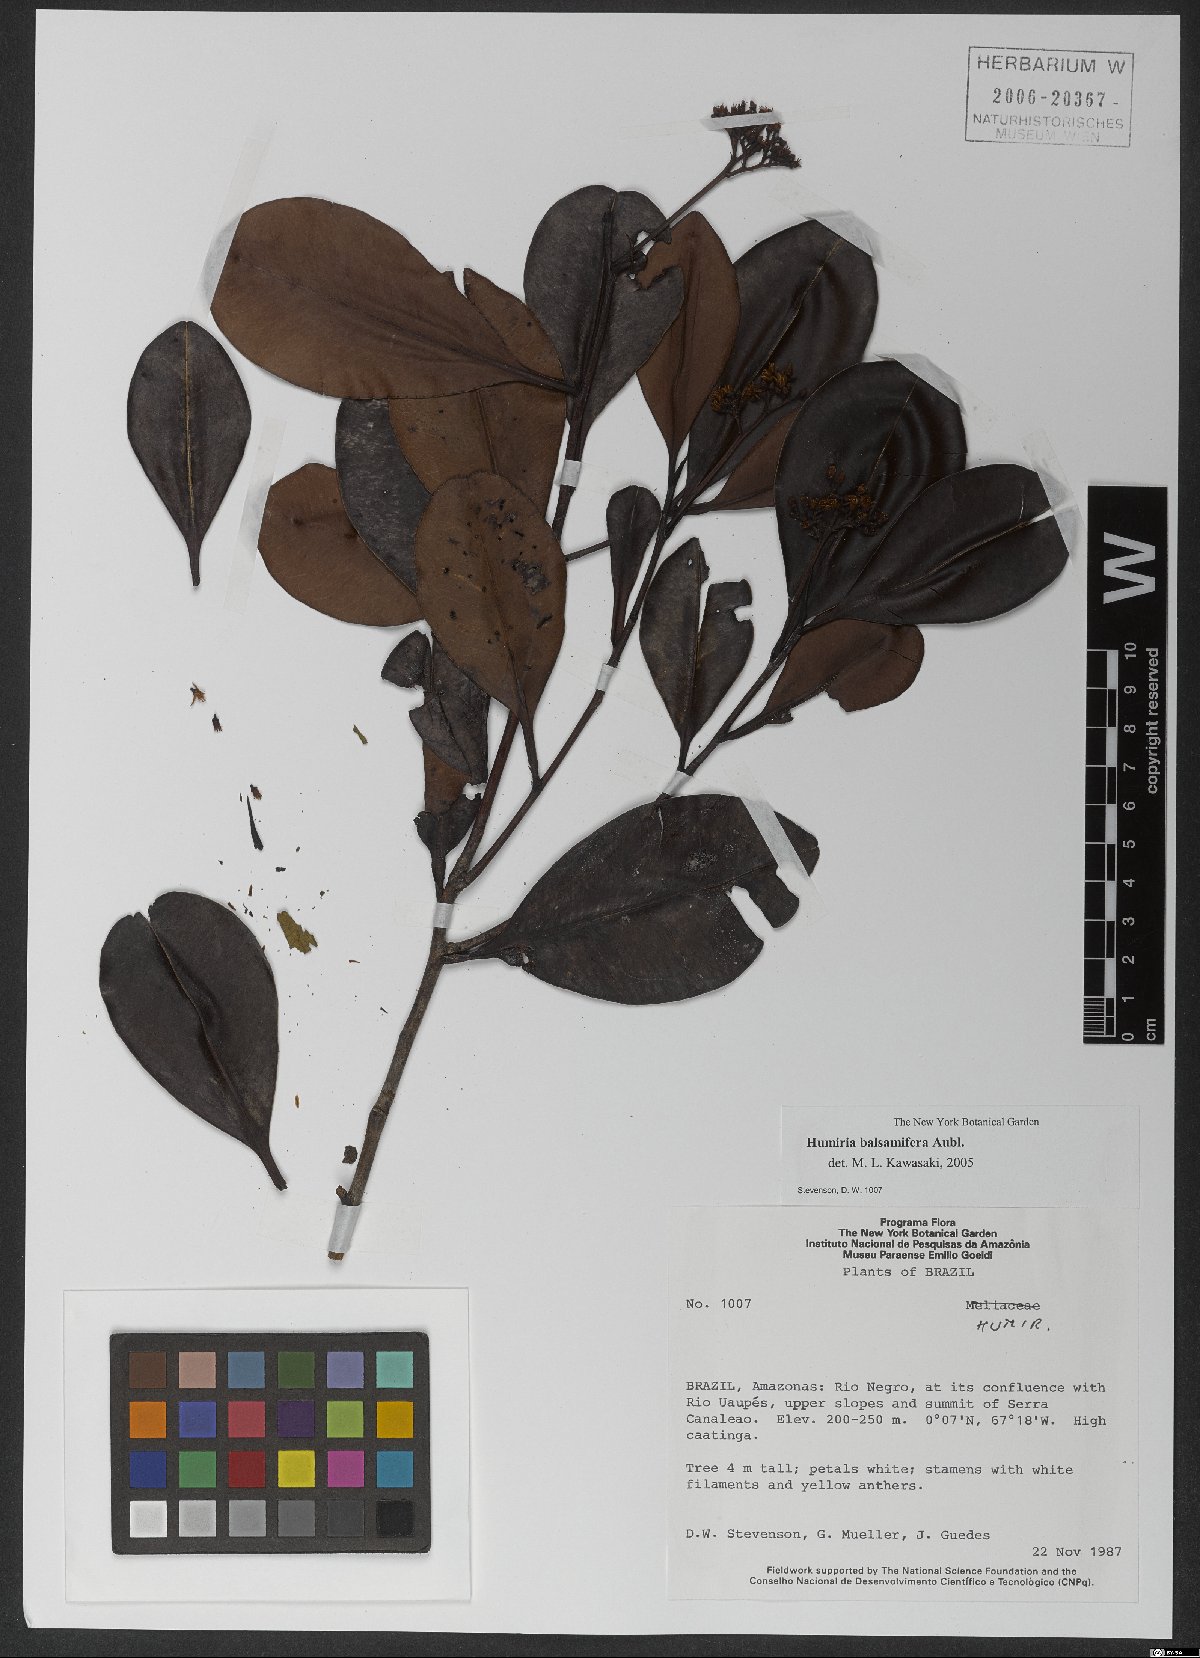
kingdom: Plantae
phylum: Tracheophyta
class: Magnoliopsida
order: Malpighiales
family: Humiriaceae
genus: Humiria
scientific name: Humiria balsamifera
